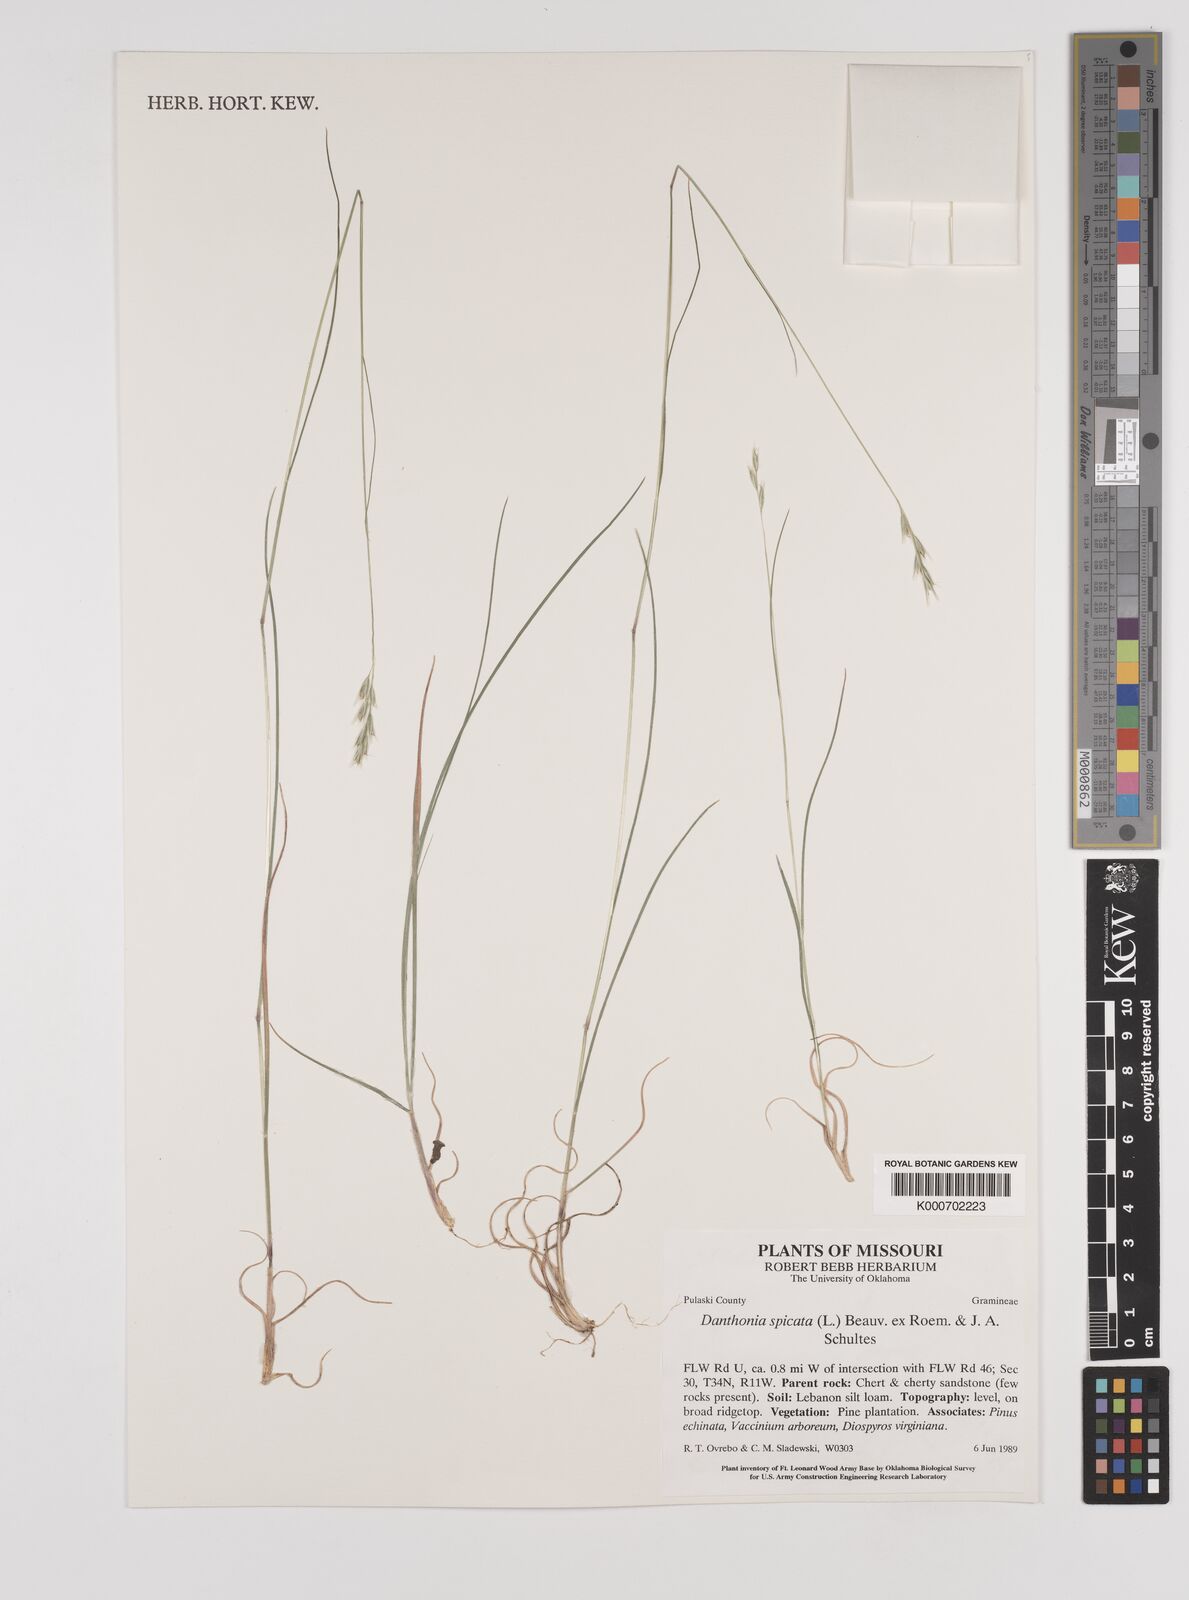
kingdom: Plantae
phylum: Tracheophyta
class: Liliopsida
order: Poales
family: Poaceae
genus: Danthonia
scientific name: Danthonia spicata
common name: Common wild oatgrass
